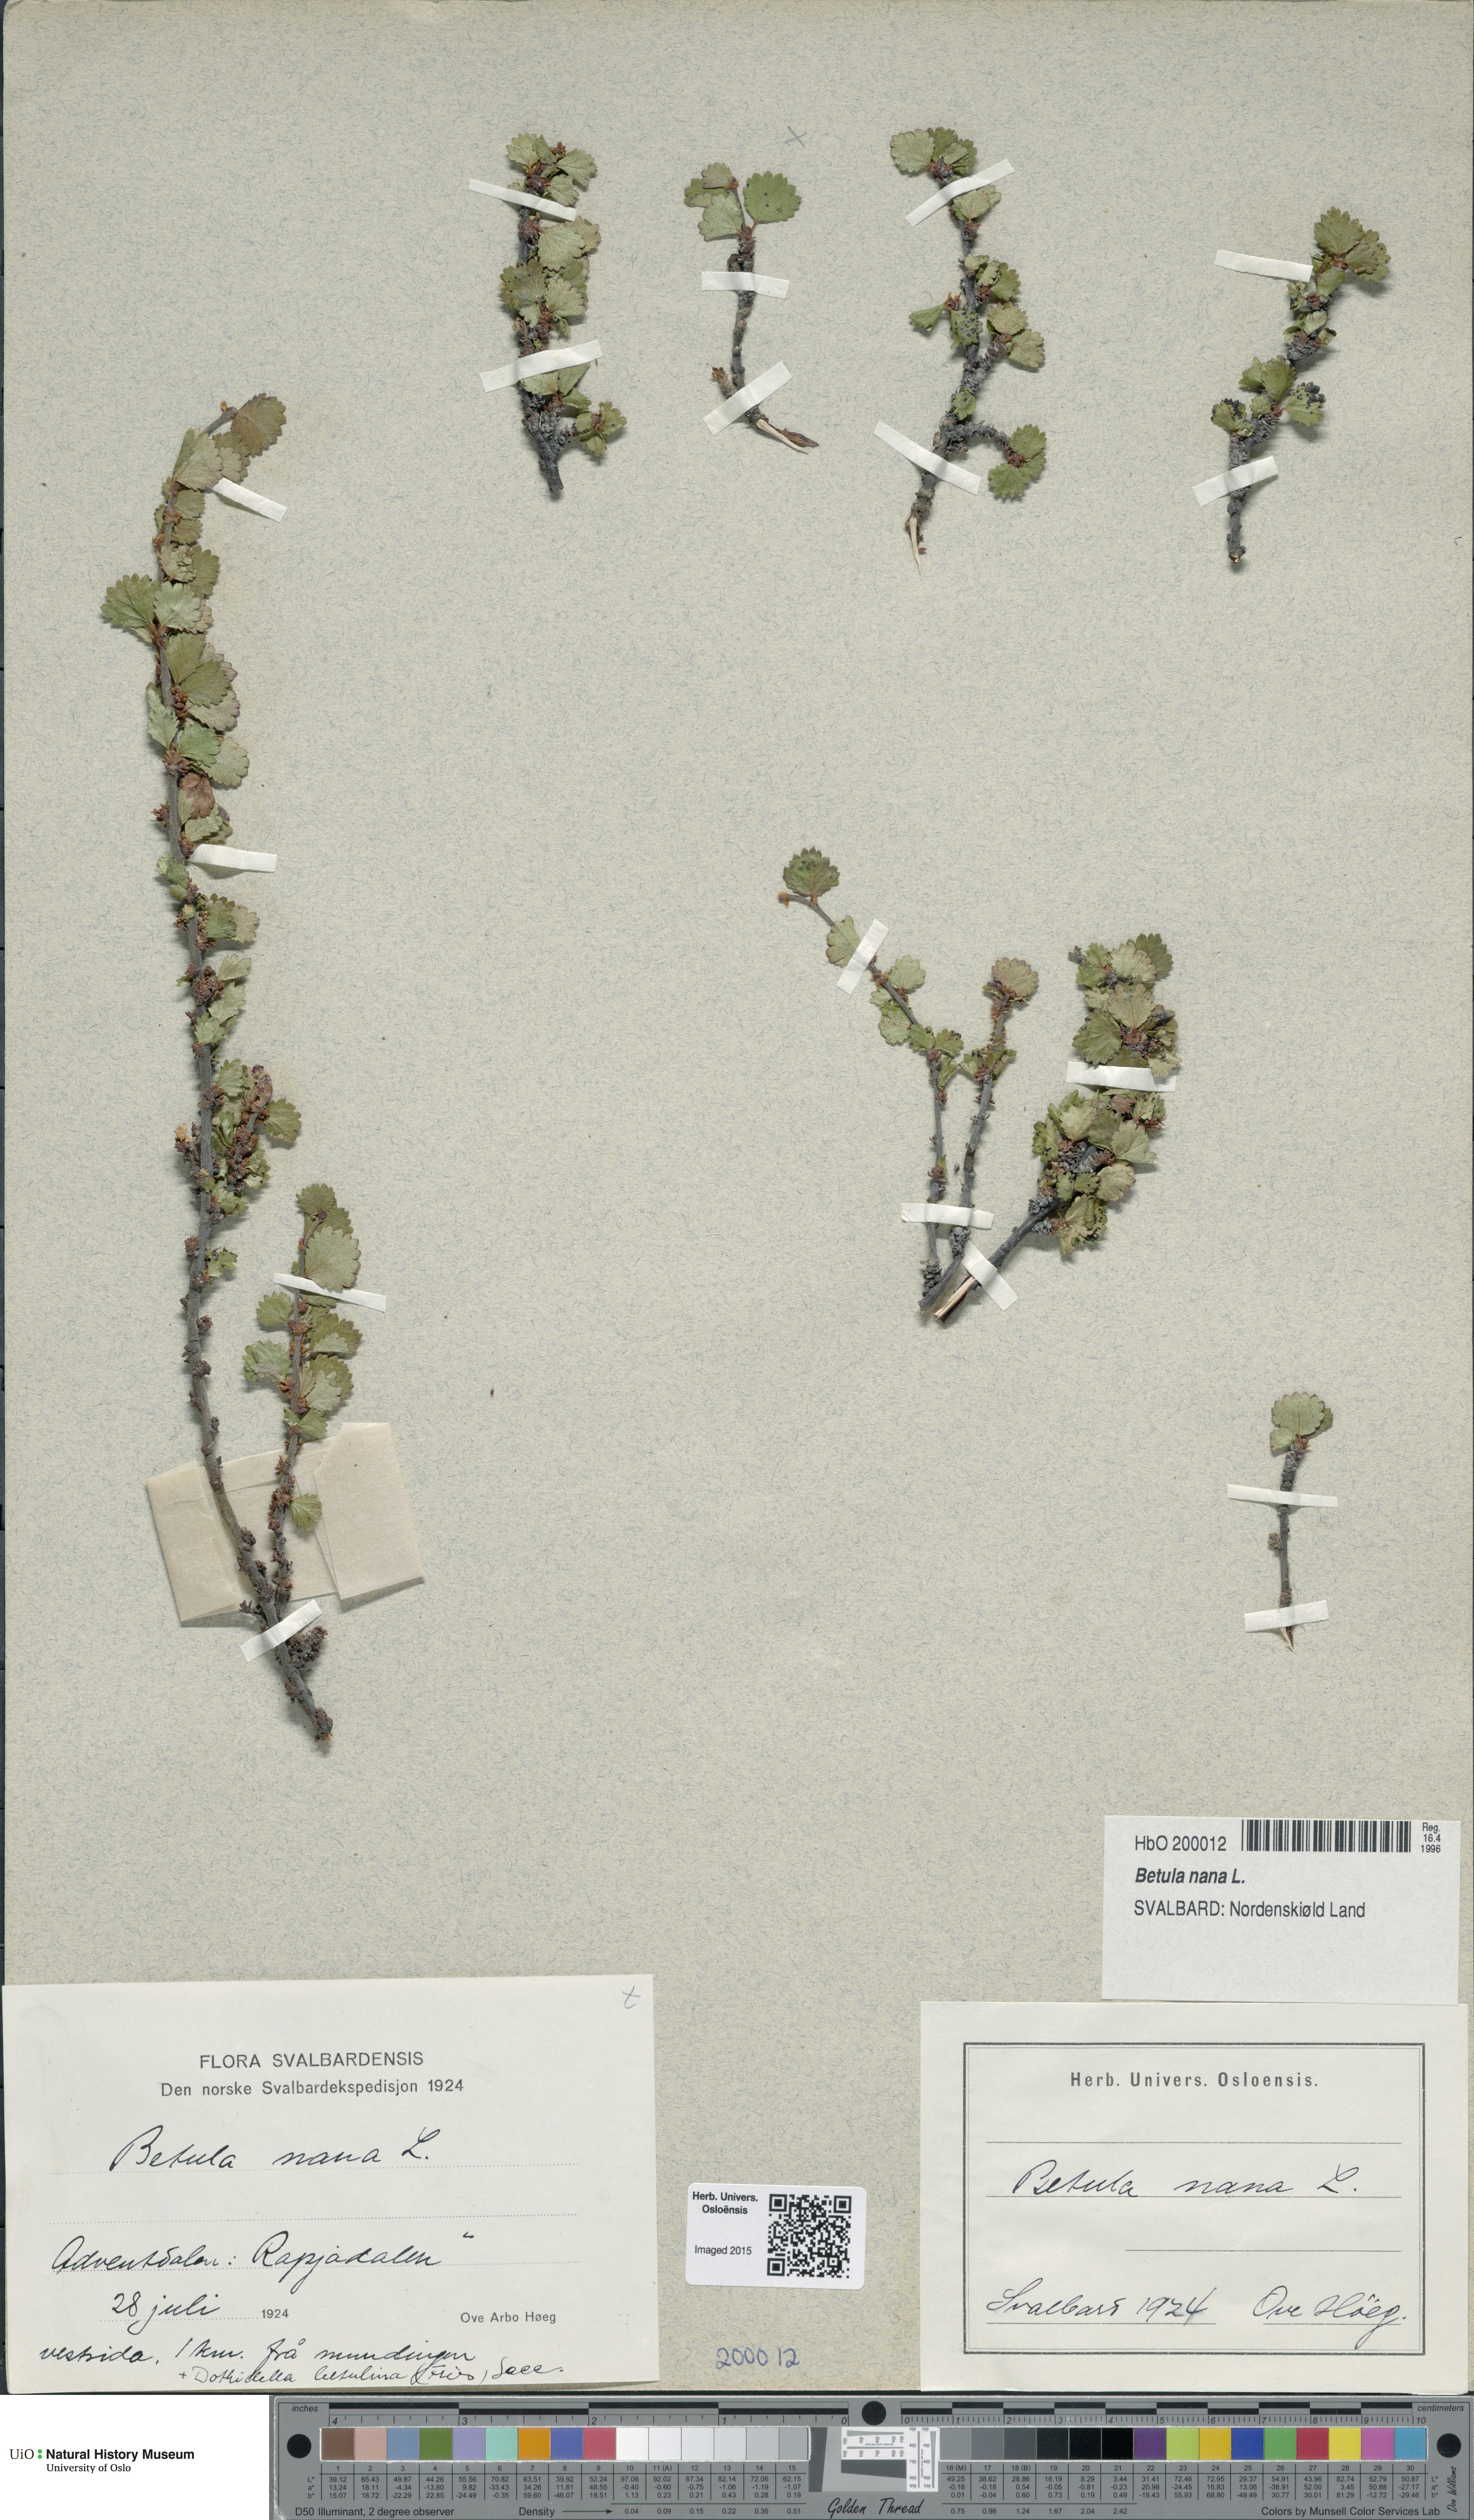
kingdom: Plantae
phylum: Tracheophyta
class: Magnoliopsida
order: Fagales
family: Betulaceae
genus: Betula
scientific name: Betula nana
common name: Arctic dwarf birch
